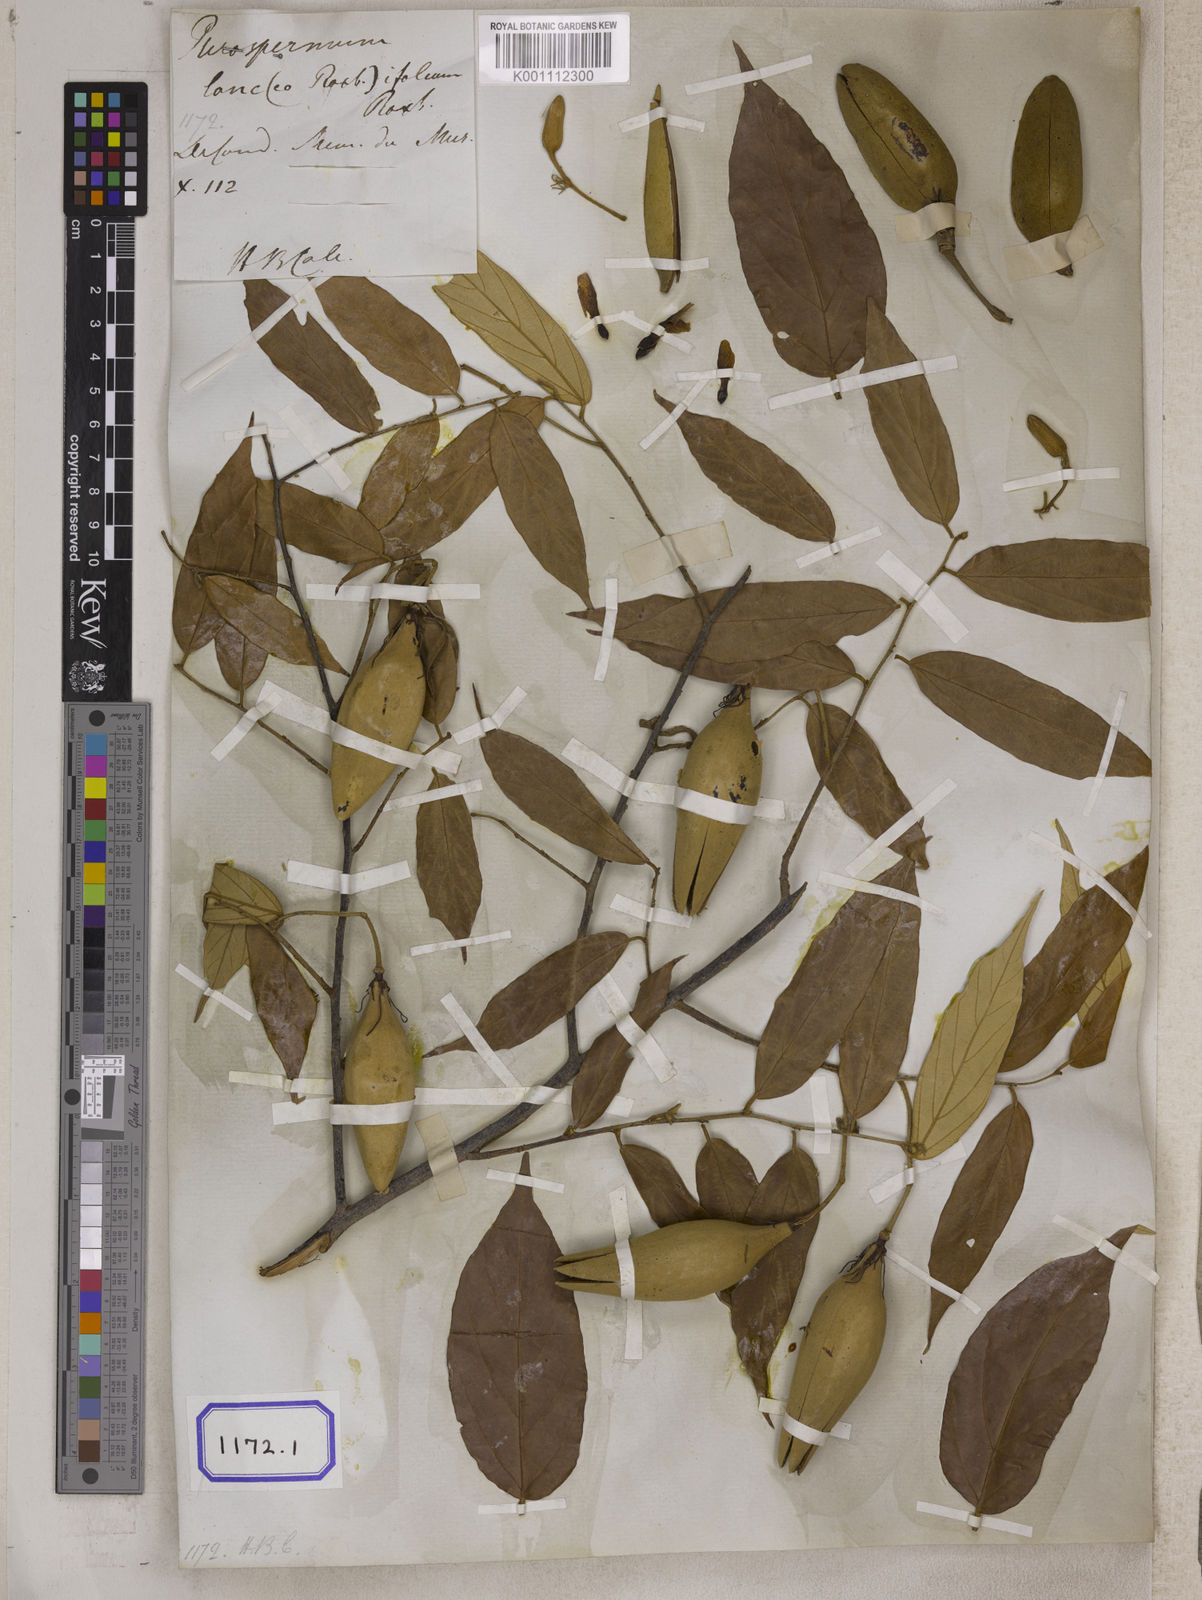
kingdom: Plantae
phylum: Tracheophyta
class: Magnoliopsida
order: Malvales
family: Malvaceae
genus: Pterospermum
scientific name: Pterospermum
